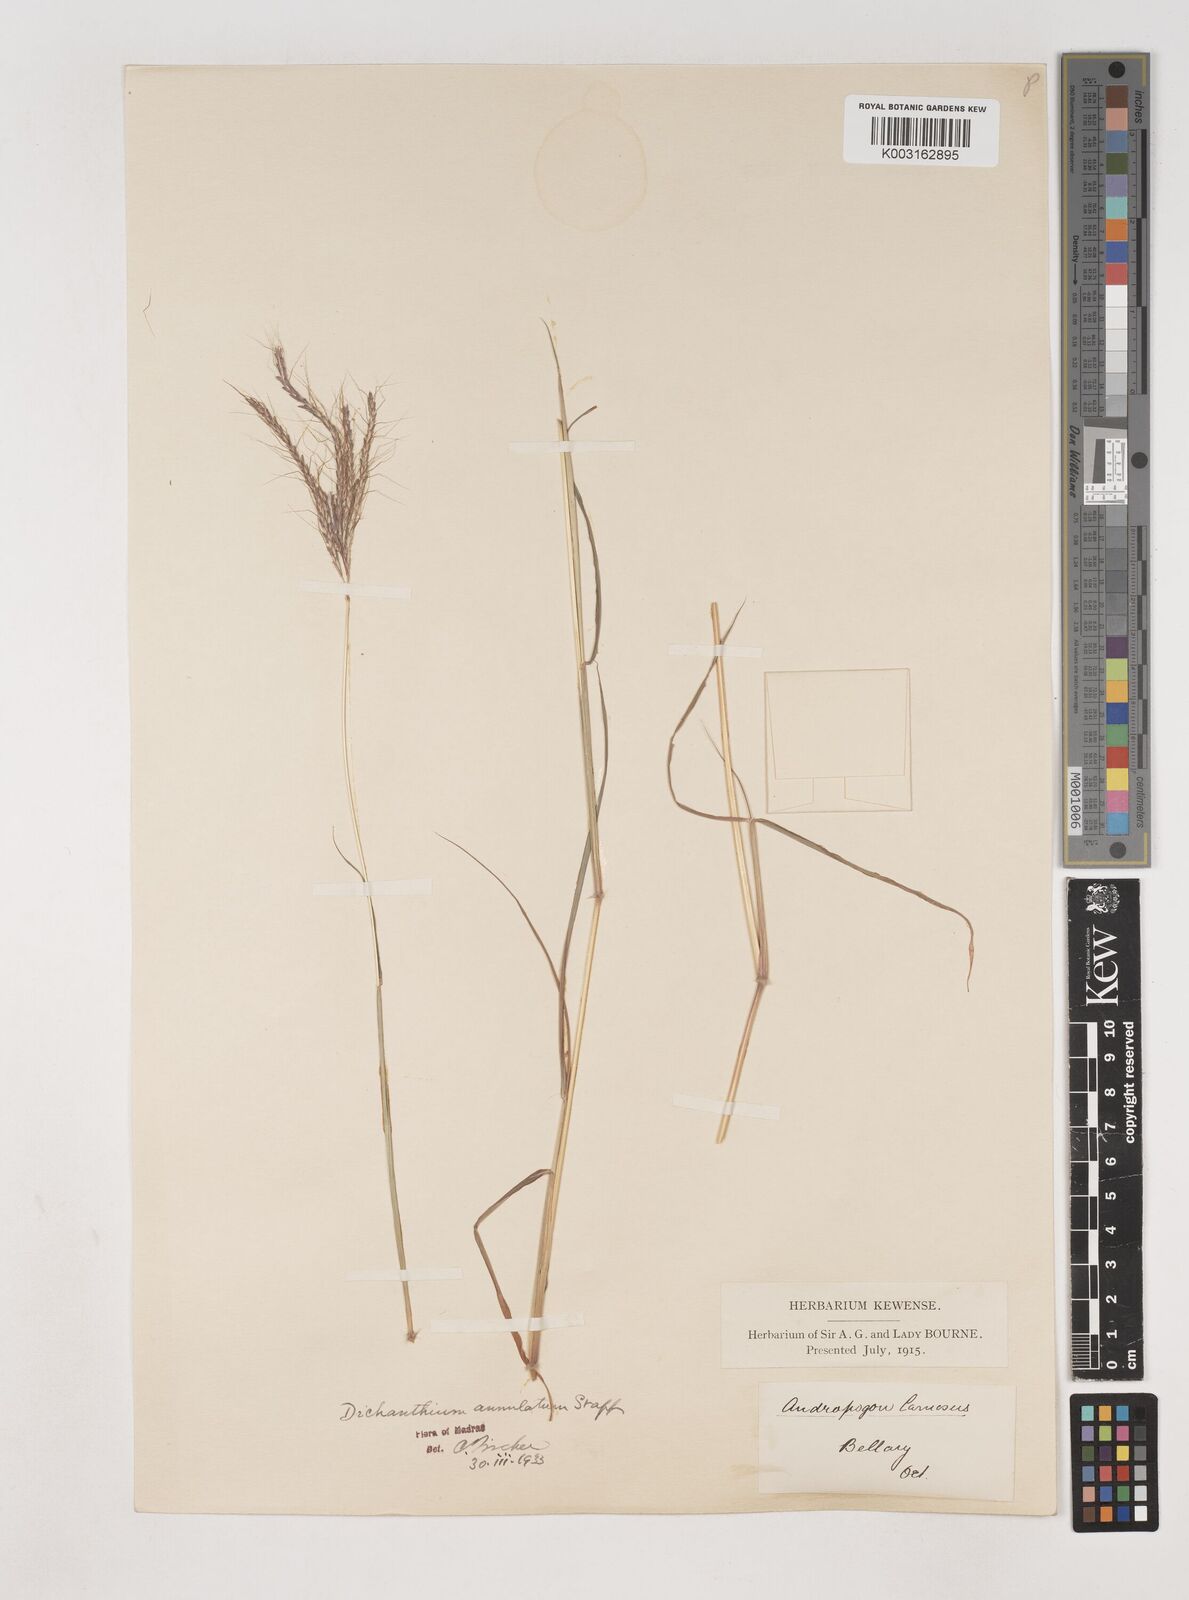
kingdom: Plantae
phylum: Tracheophyta
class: Liliopsida
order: Poales
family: Poaceae
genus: Dichanthium
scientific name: Dichanthium annulatum
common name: Kleberg's bluestem
